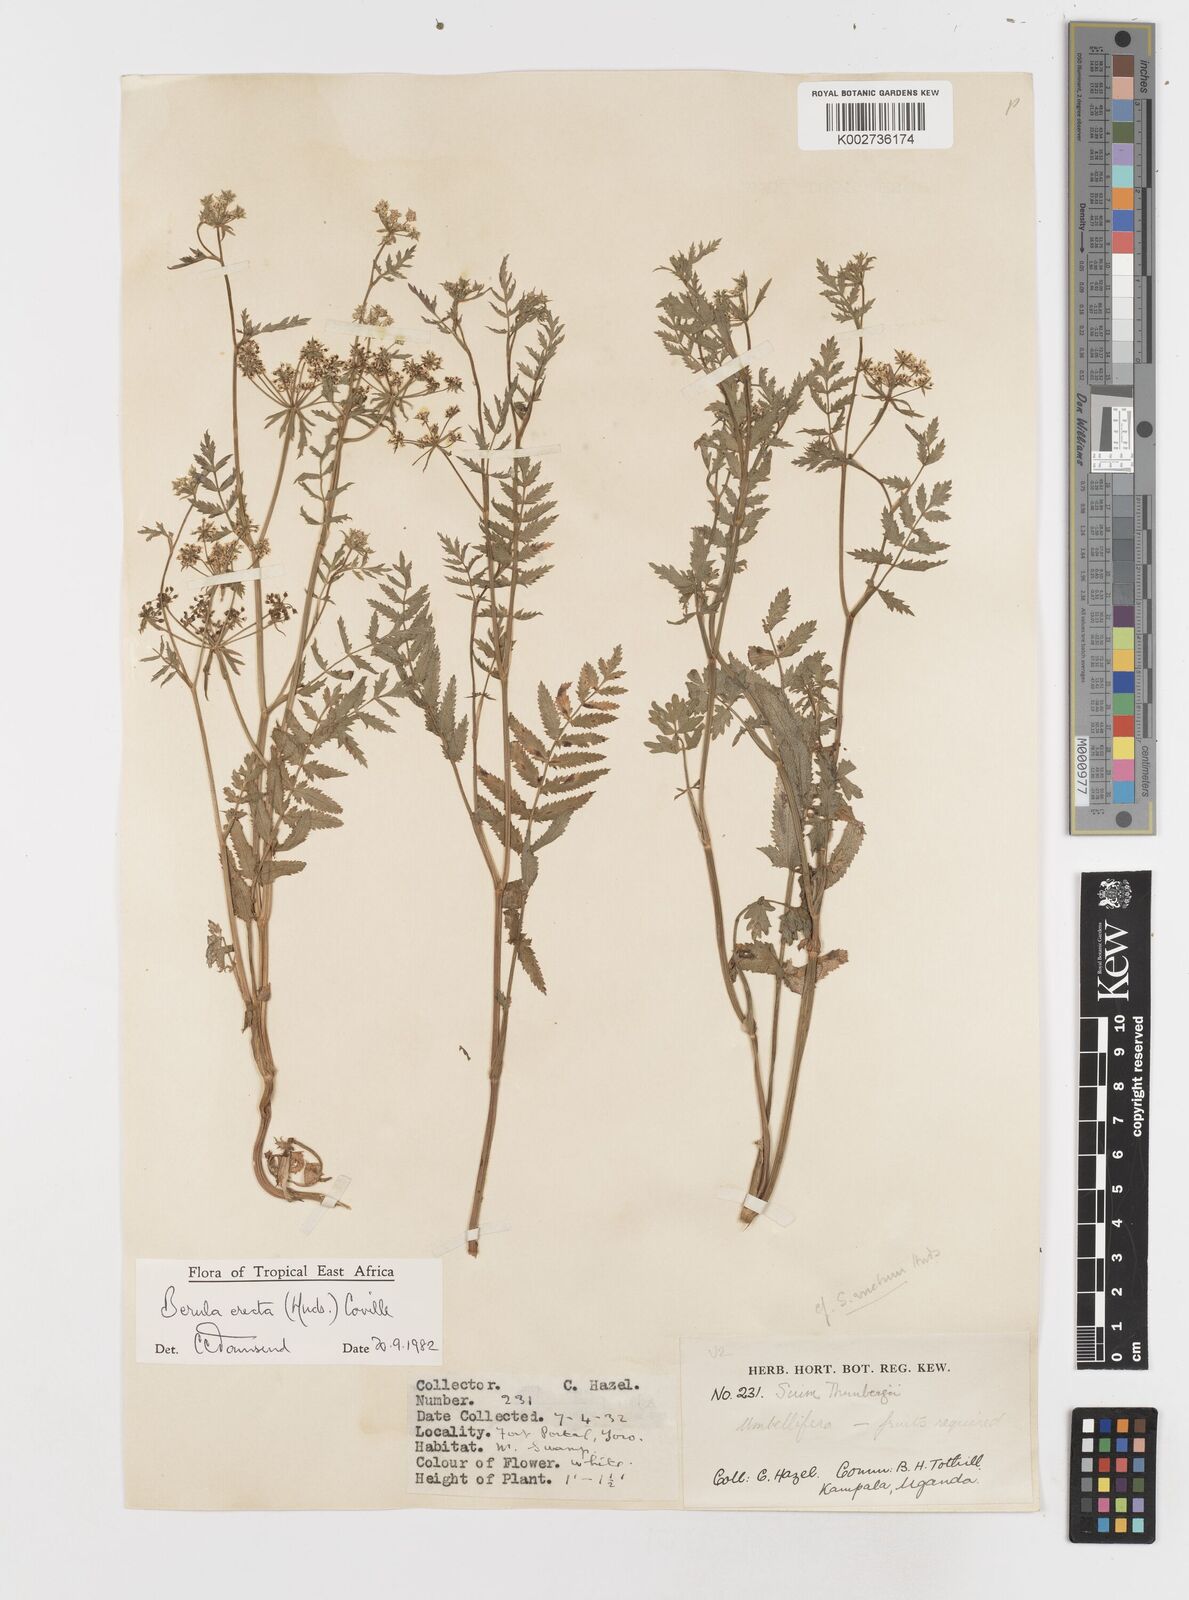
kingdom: Plantae
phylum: Tracheophyta
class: Magnoliopsida
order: Apiales
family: Apiaceae
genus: Berula
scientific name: Berula erecta
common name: Lesser water-parsnip
